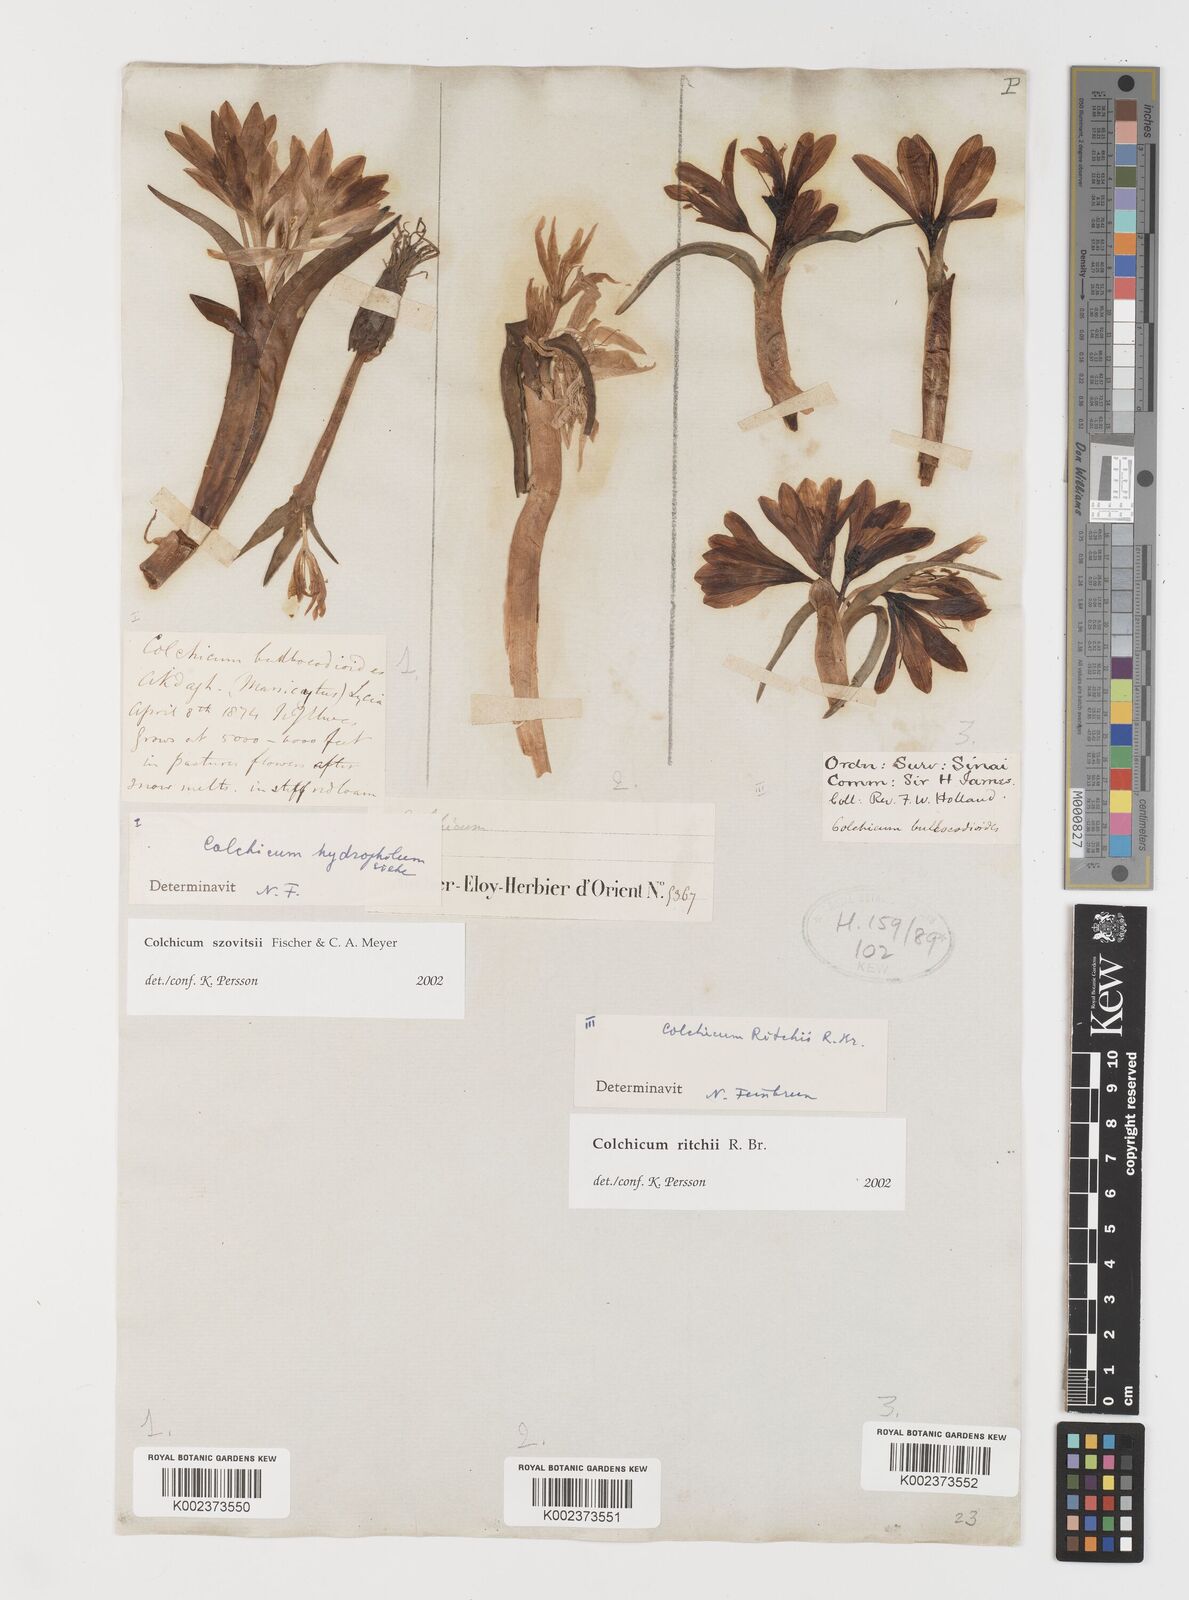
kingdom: Plantae
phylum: Tracheophyta
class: Liliopsida
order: Liliales
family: Colchicaceae
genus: Colchicum
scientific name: Colchicum ritchii
